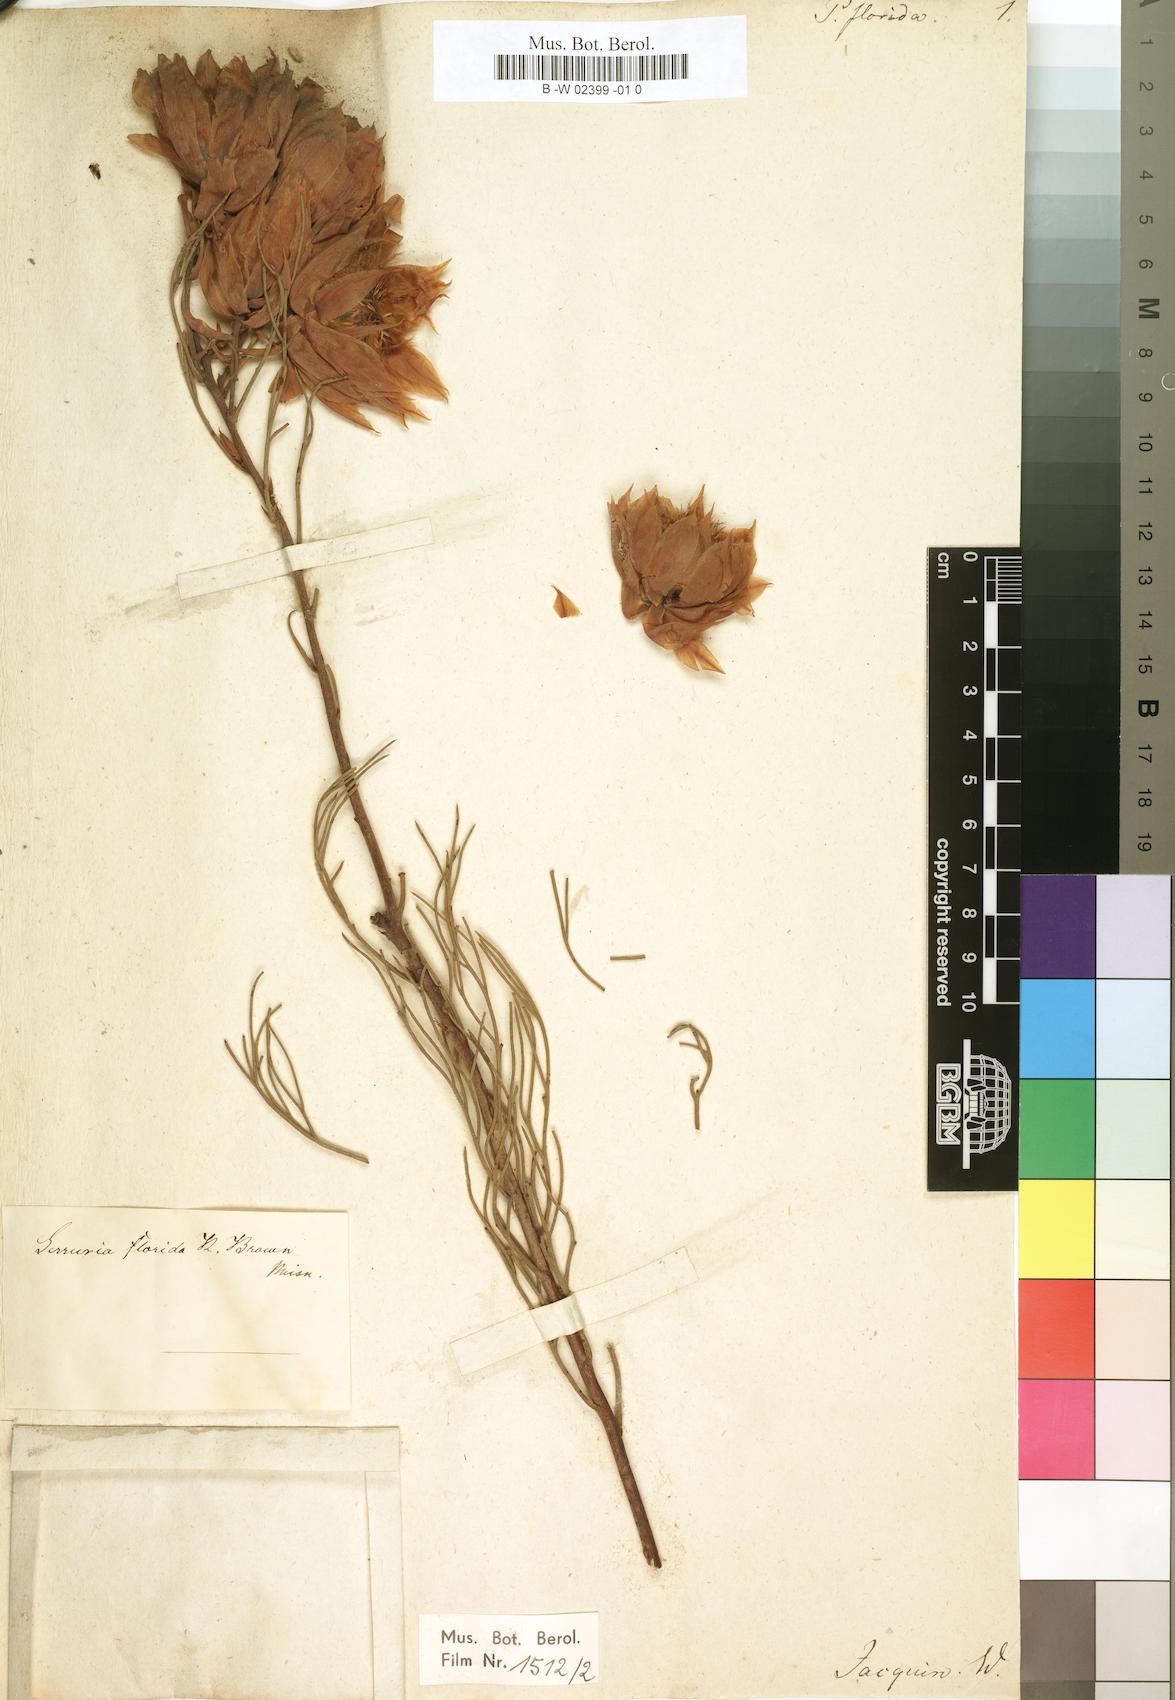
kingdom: Plantae
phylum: Tracheophyta
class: Magnoliopsida
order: Proteales
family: Proteaceae
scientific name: Proteaceae
